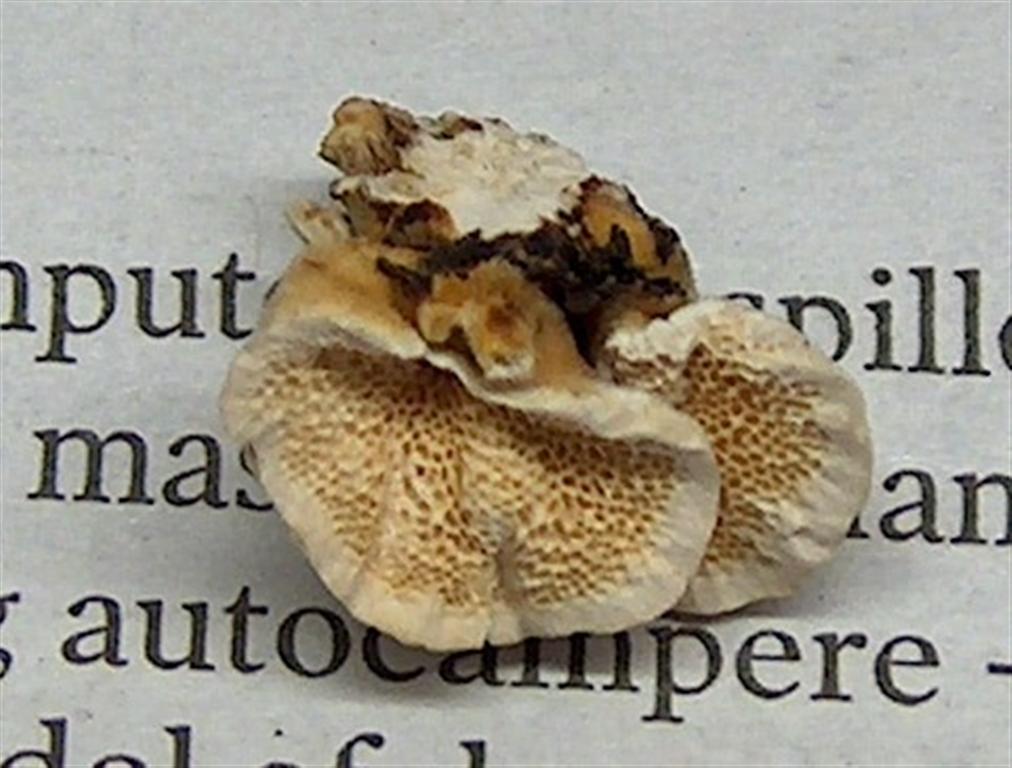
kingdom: Fungi
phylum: Basidiomycota
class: Agaricomycetes
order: Polyporales
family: Polyporaceae
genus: Trametes
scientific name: Trametes versicolor
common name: broget læderporesvamp
